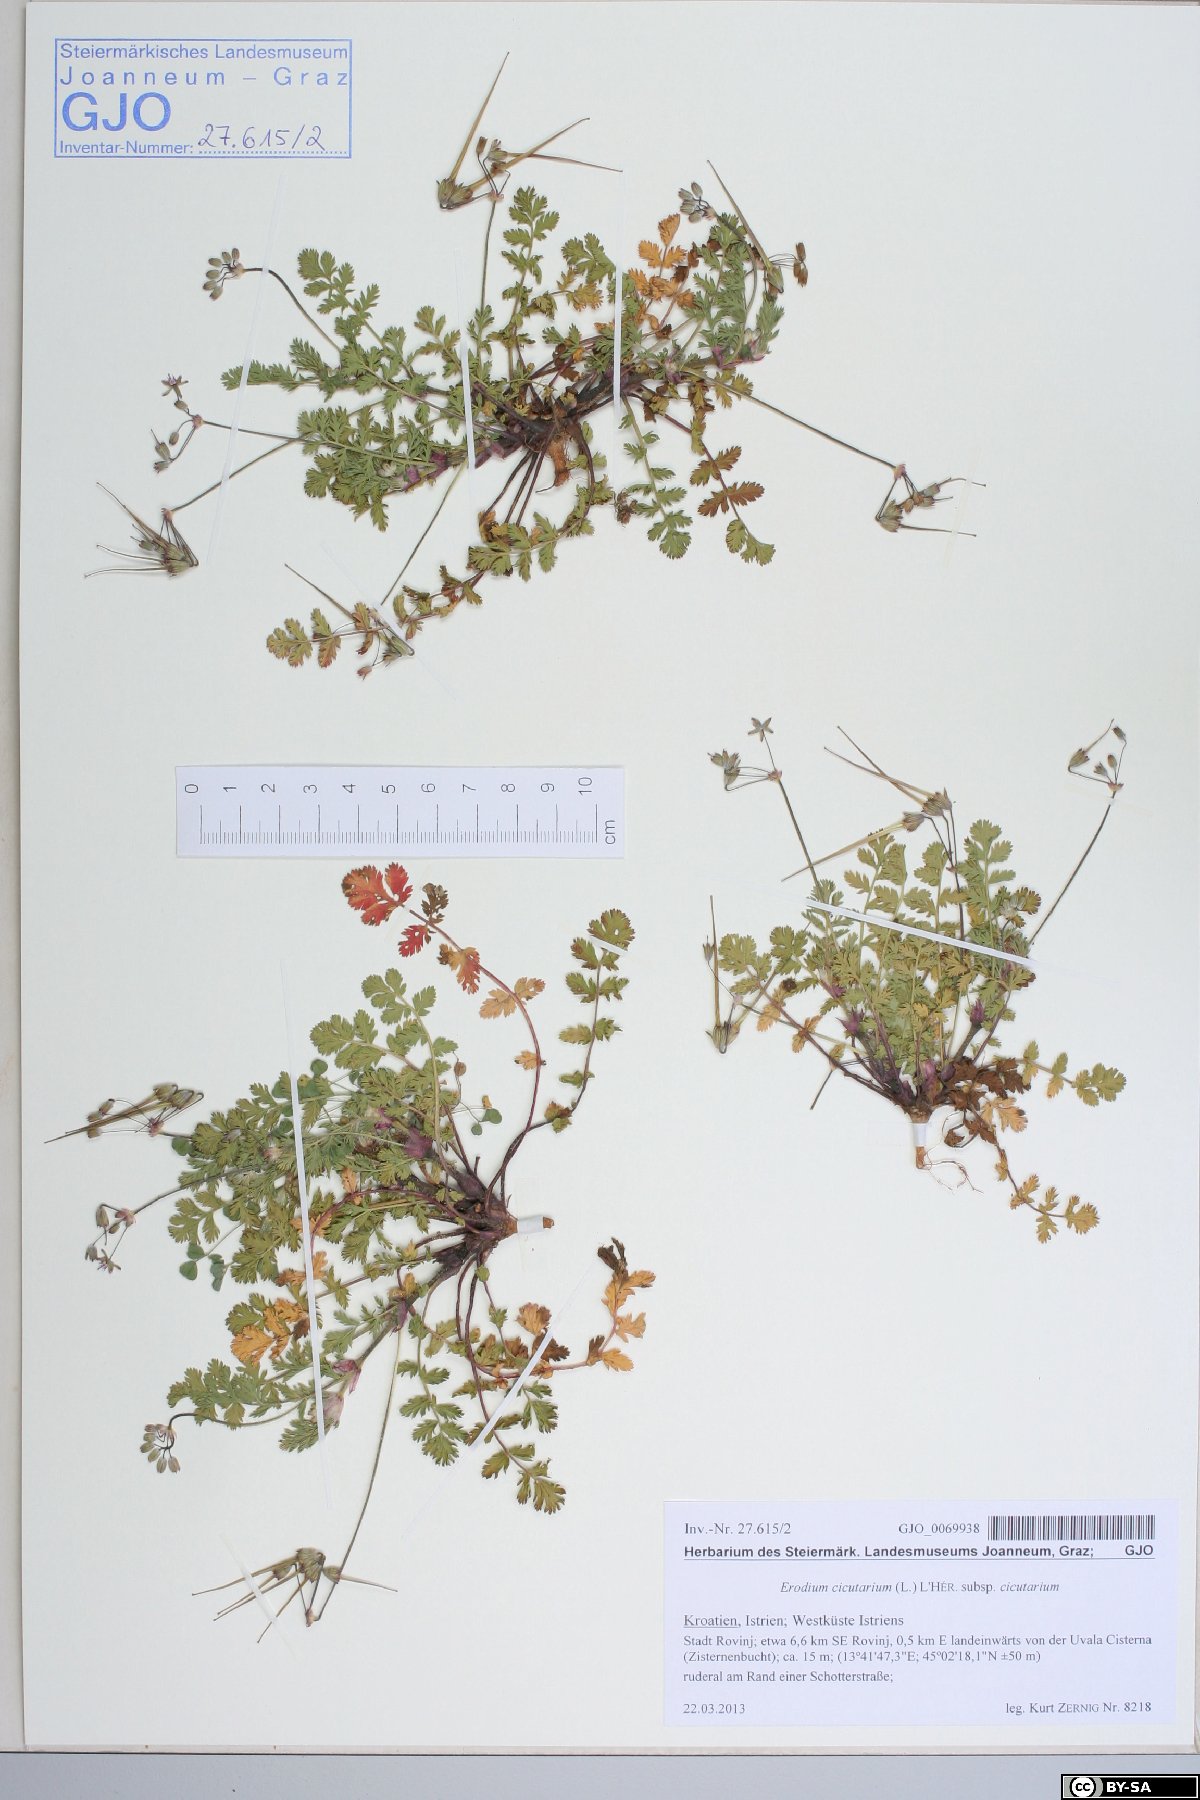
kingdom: Plantae
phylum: Tracheophyta
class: Magnoliopsida
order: Geraniales
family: Geraniaceae
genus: Erodium
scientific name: Erodium cicutarium
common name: Common stork's-bill
